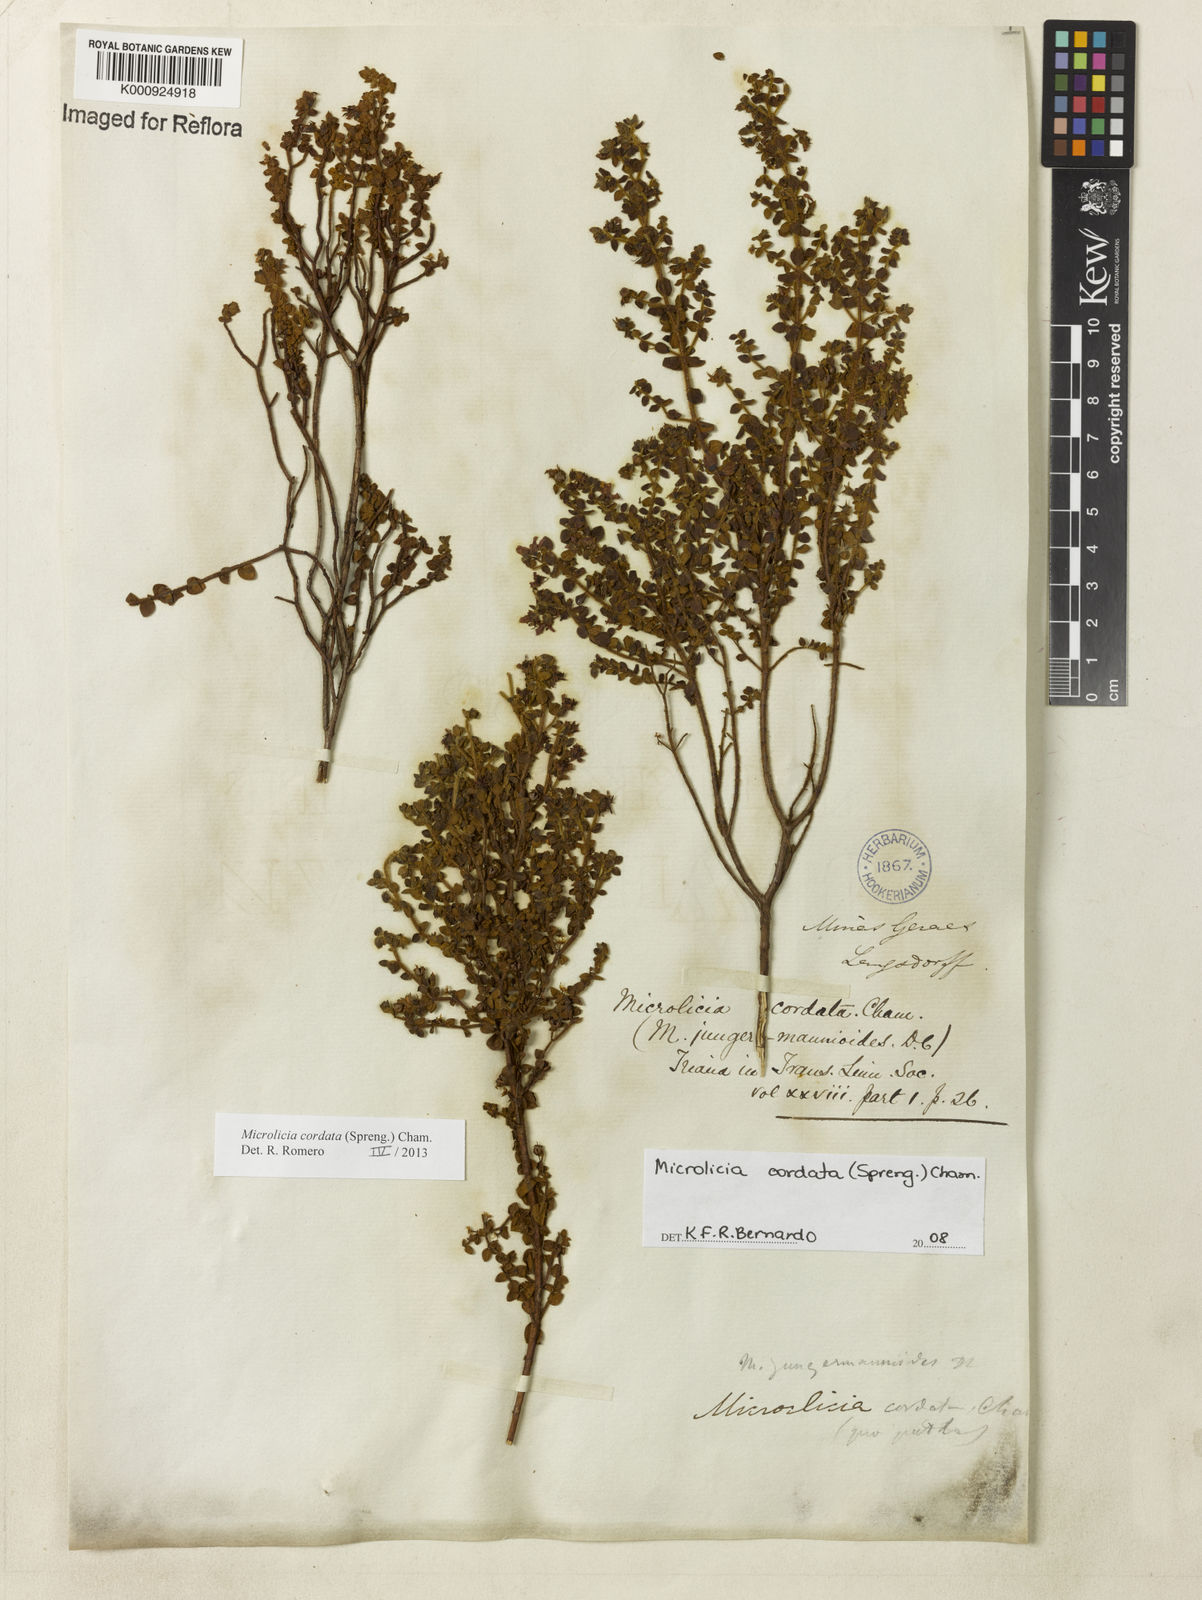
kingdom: Plantae
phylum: Tracheophyta
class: Magnoliopsida
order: Myrtales
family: Melastomataceae
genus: Microlicia
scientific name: Microlicia cordata
